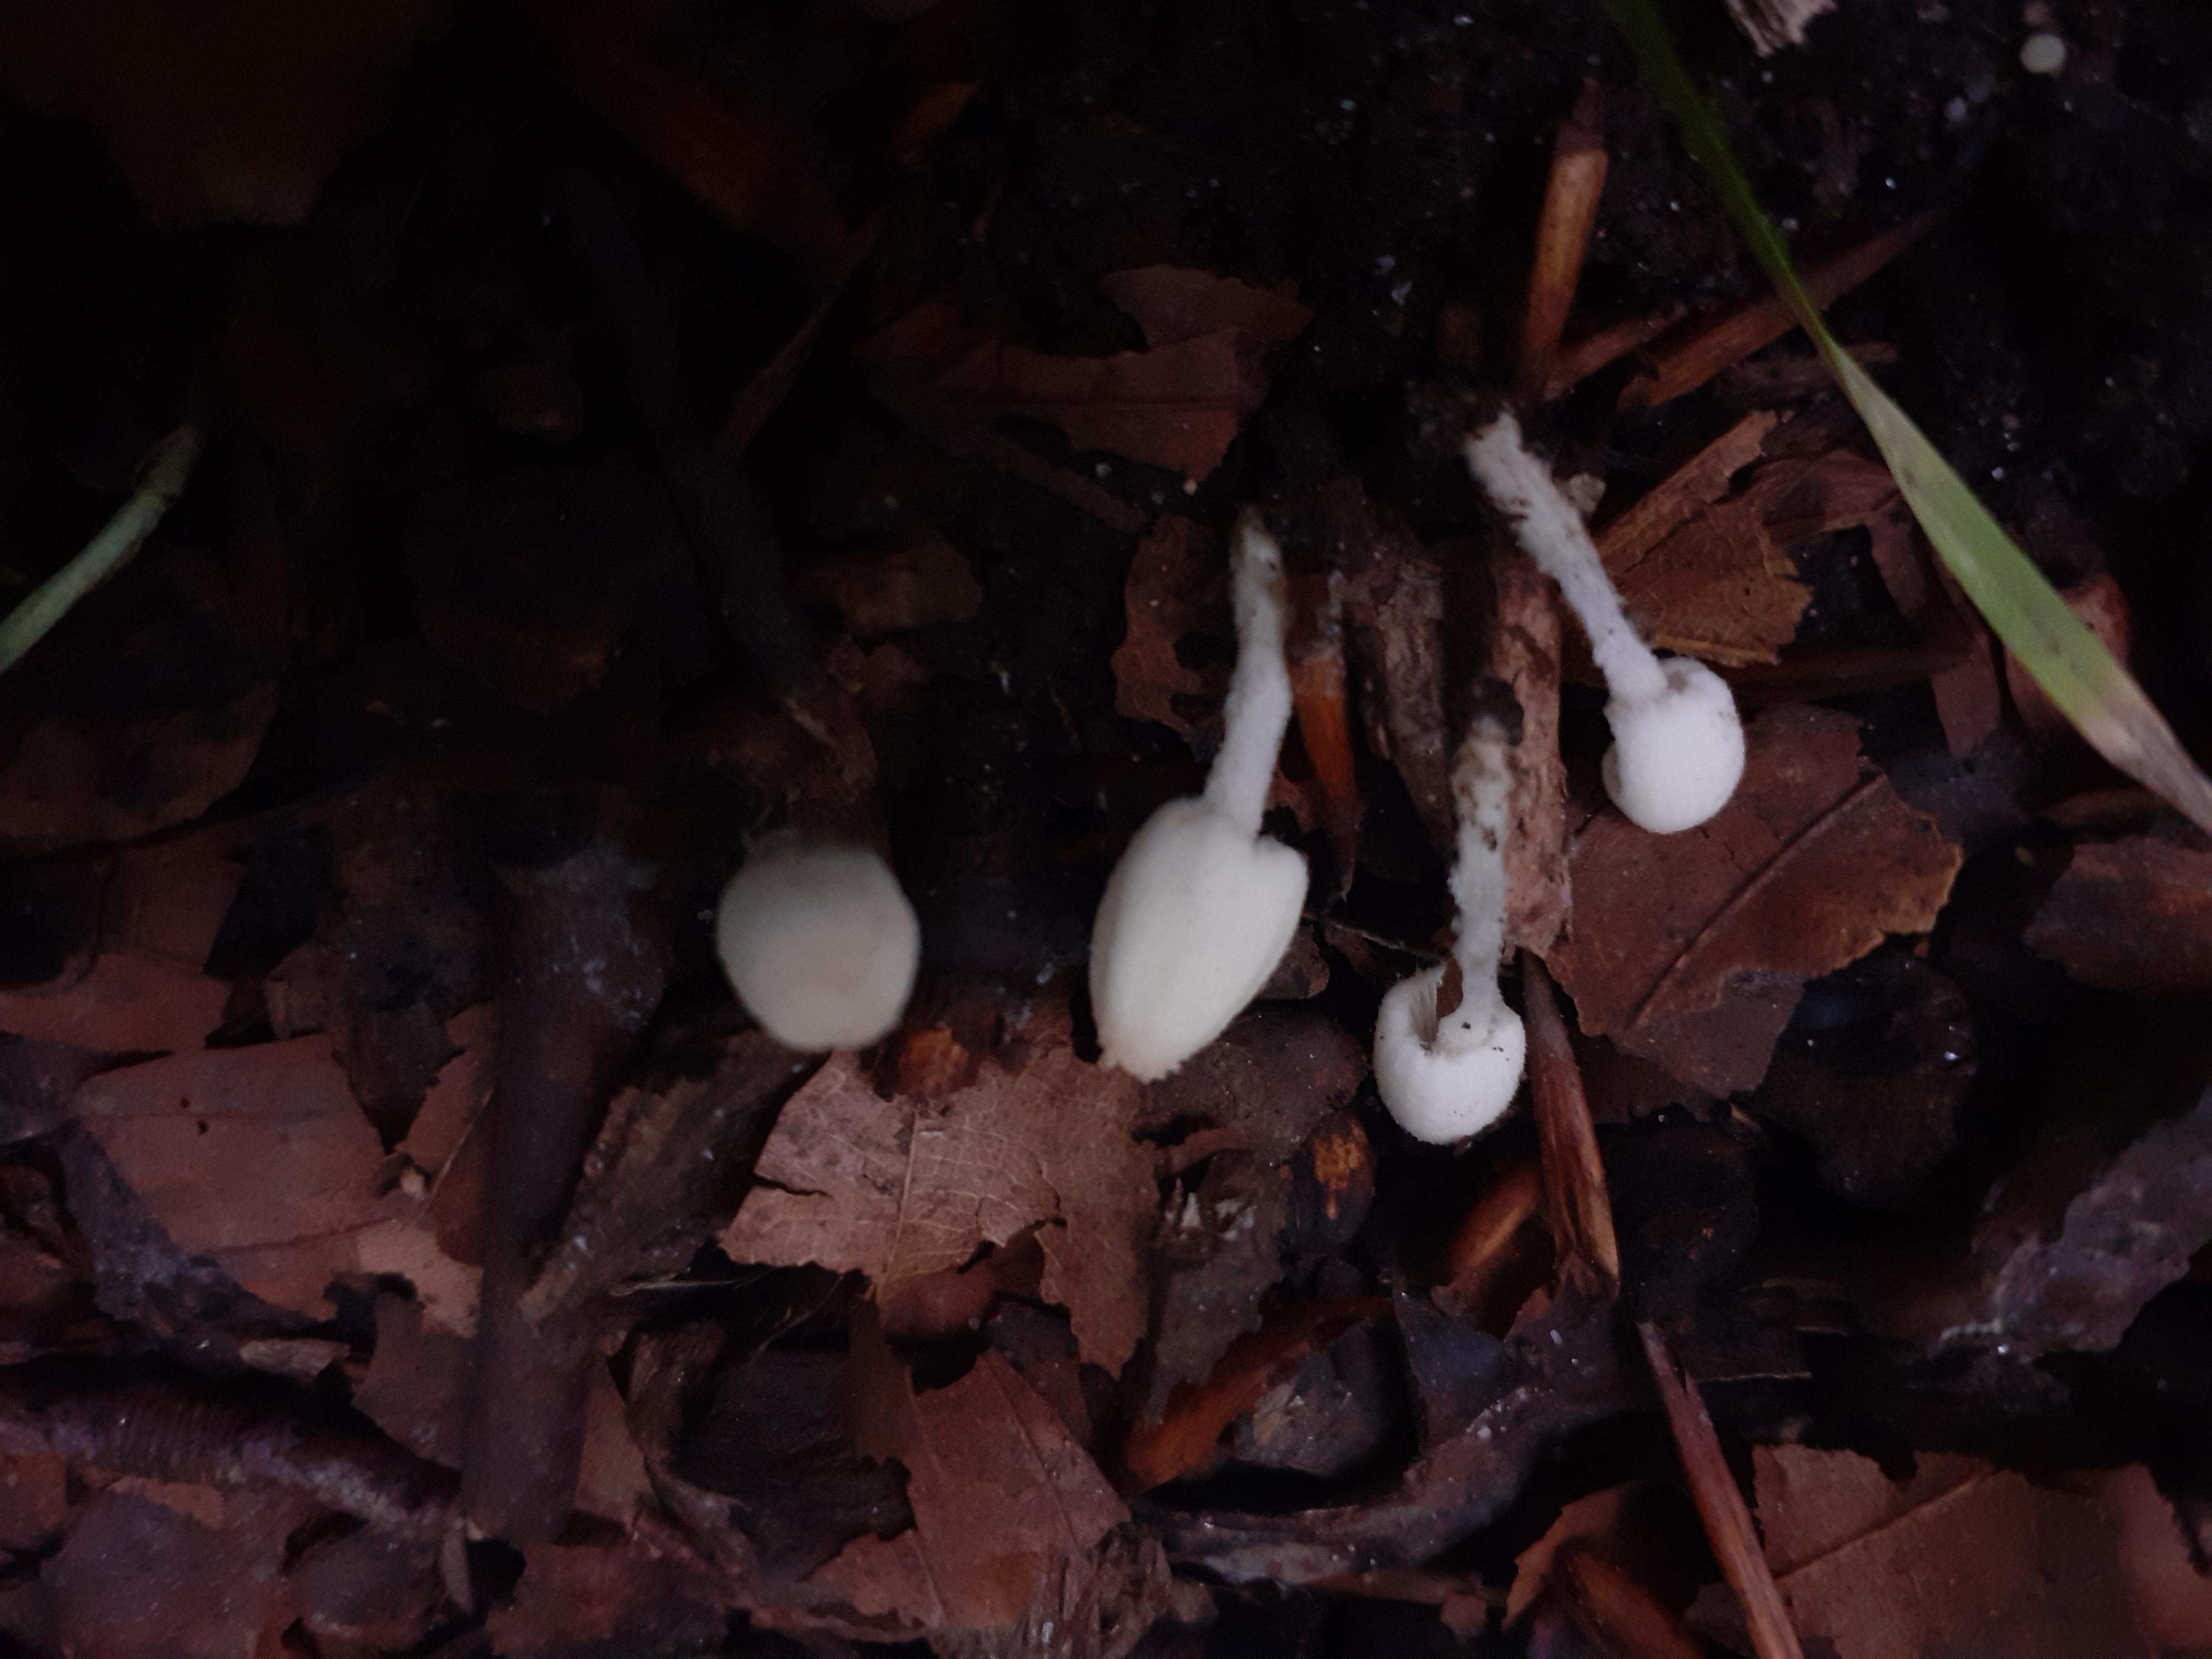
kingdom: Fungi
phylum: Basidiomycota
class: Agaricomycetes
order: Agaricales
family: Psathyrellaceae
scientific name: Psathyrellaceae
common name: mørkhatfamilien
